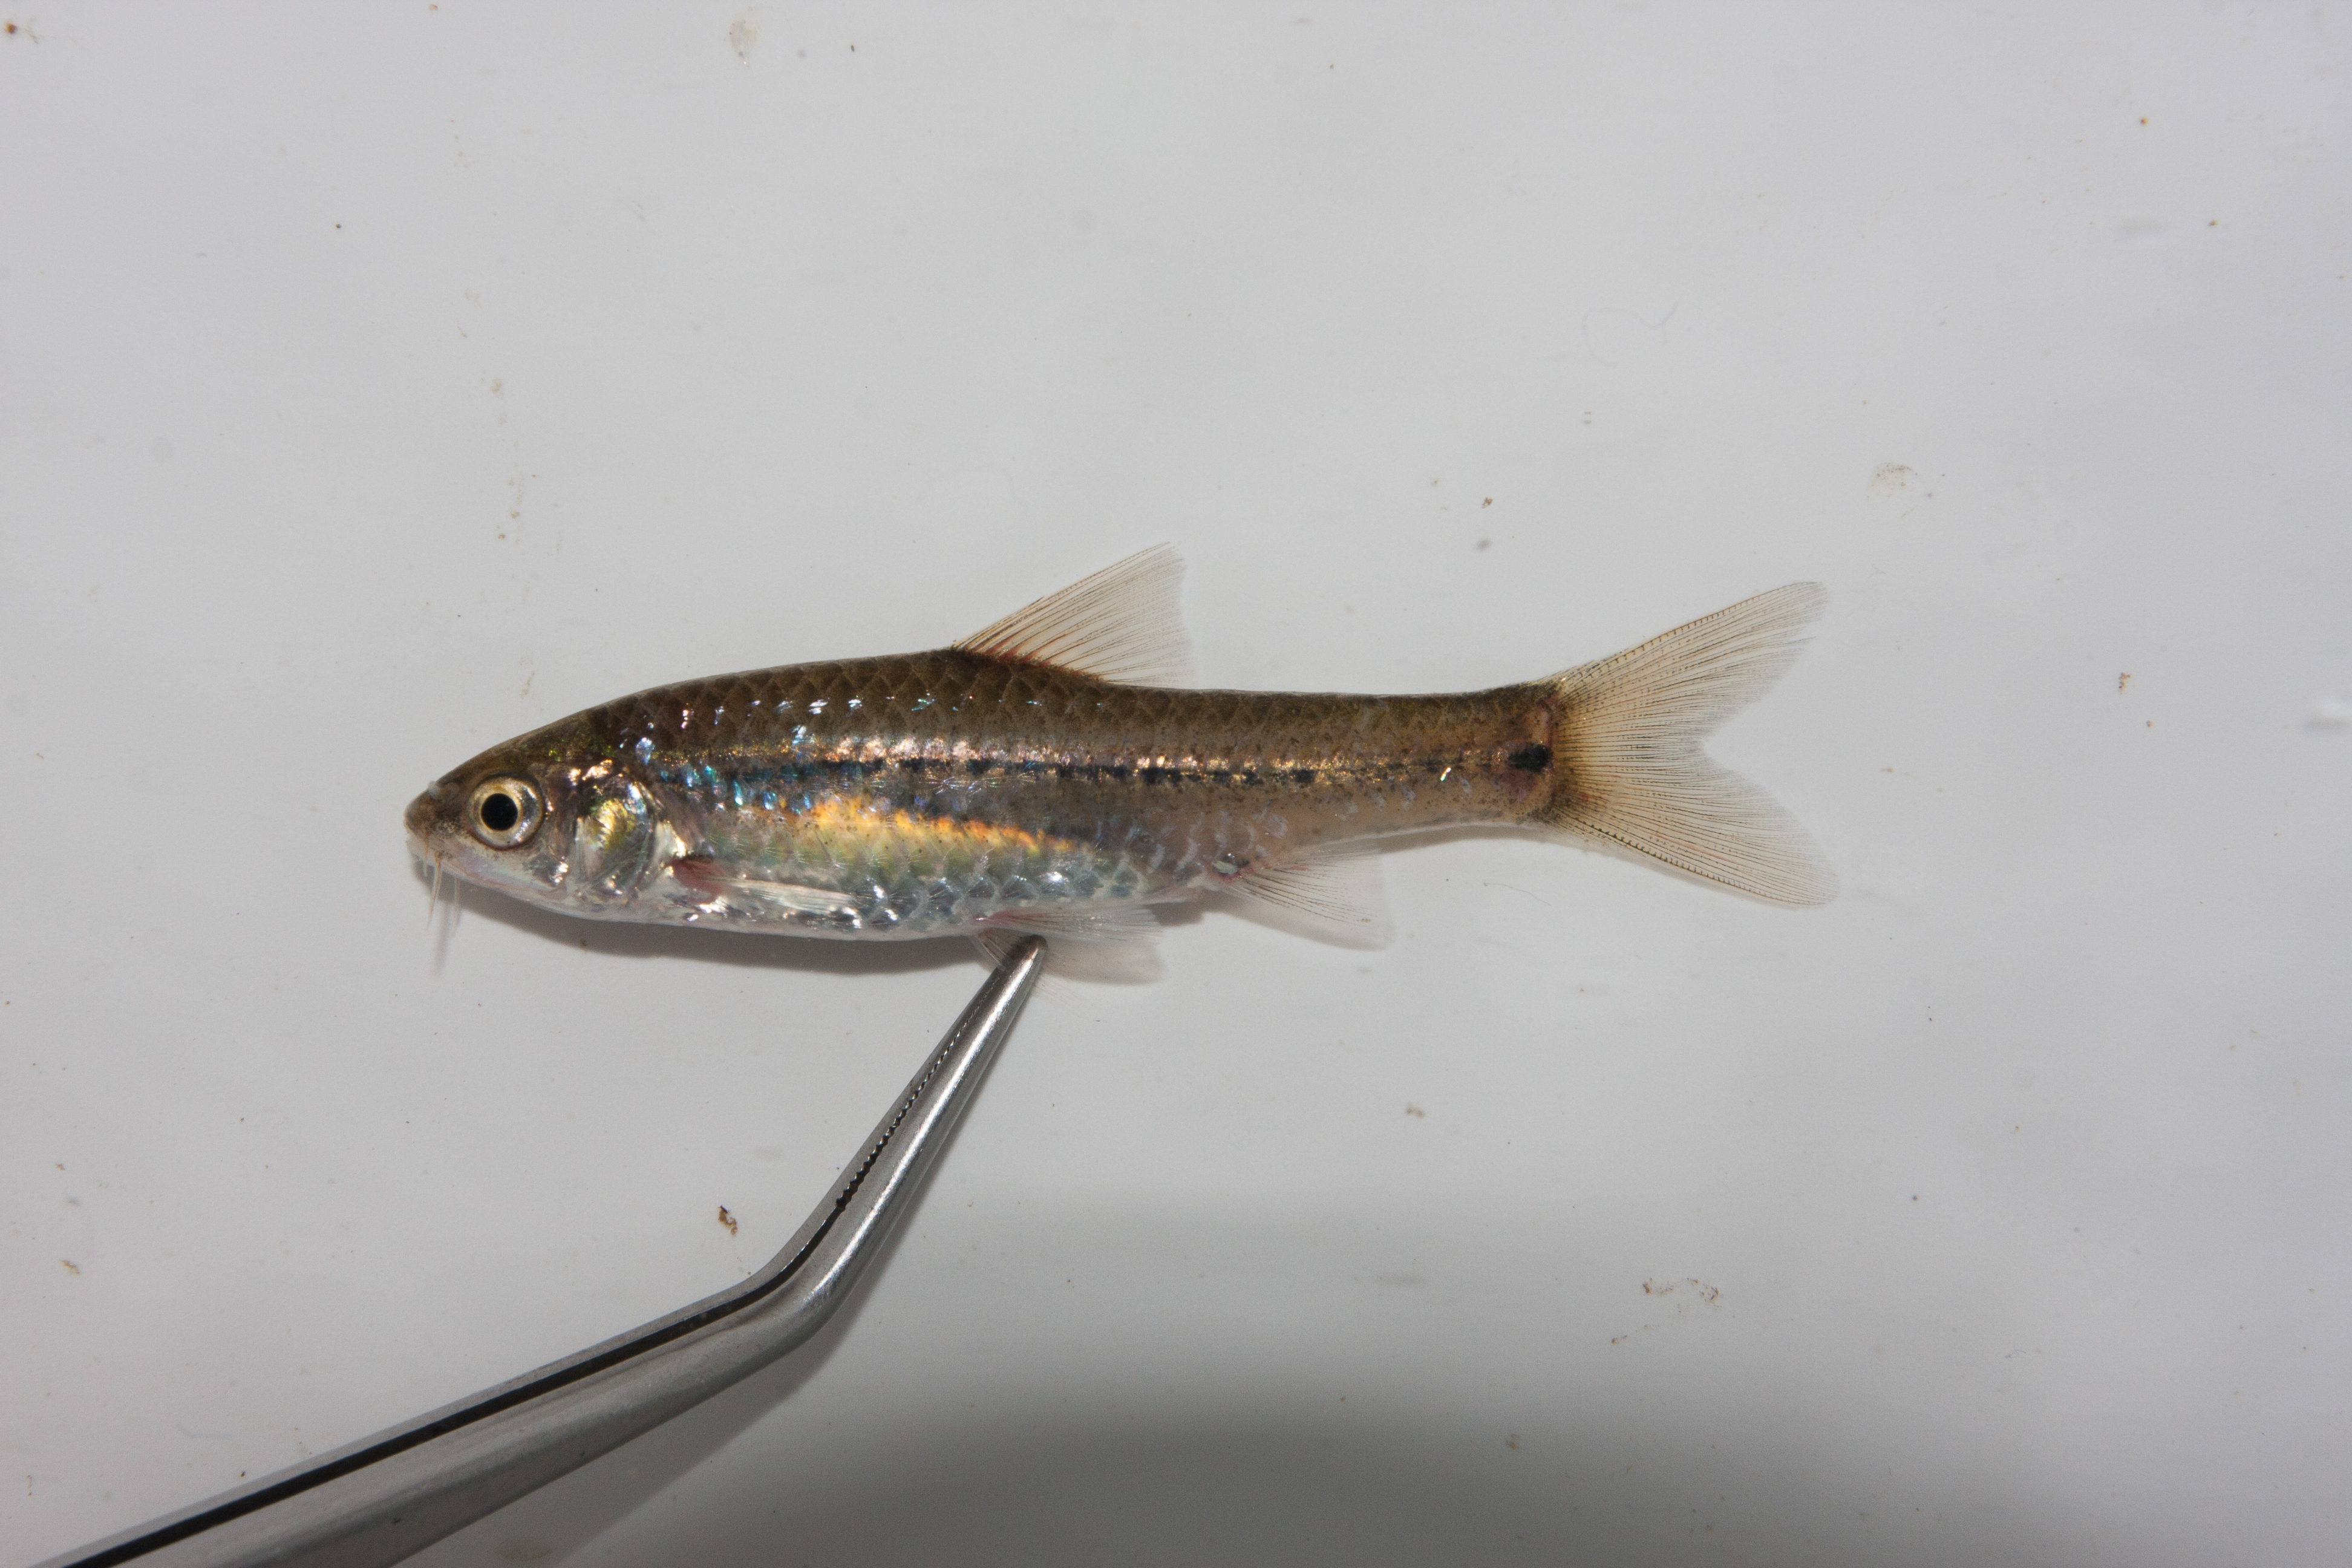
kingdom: Animalia
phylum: Chordata
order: Cypriniformes
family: Cyprinidae
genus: Enteromius
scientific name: Enteromius viviparus
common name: Bowstripe barb
